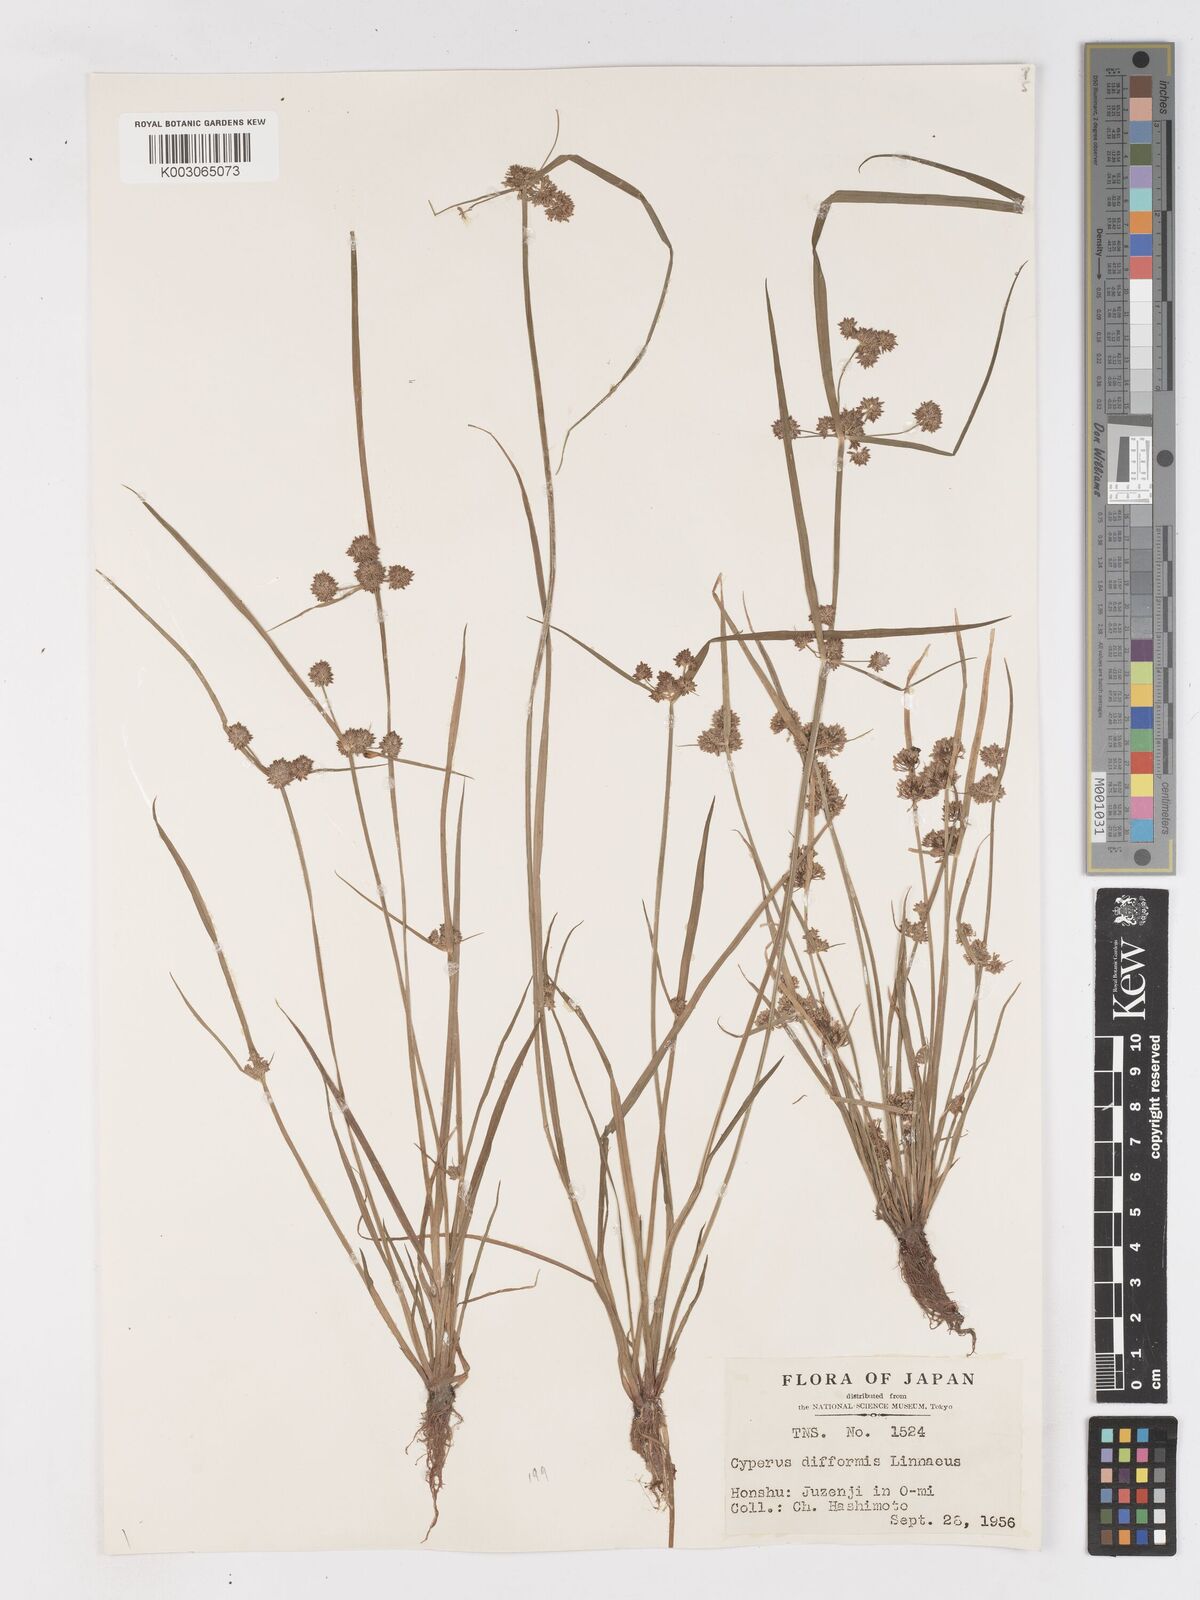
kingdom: Plantae
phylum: Tracheophyta
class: Liliopsida
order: Poales
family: Cyperaceae
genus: Cyperus
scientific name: Cyperus difformis
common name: Variable flatsedge
